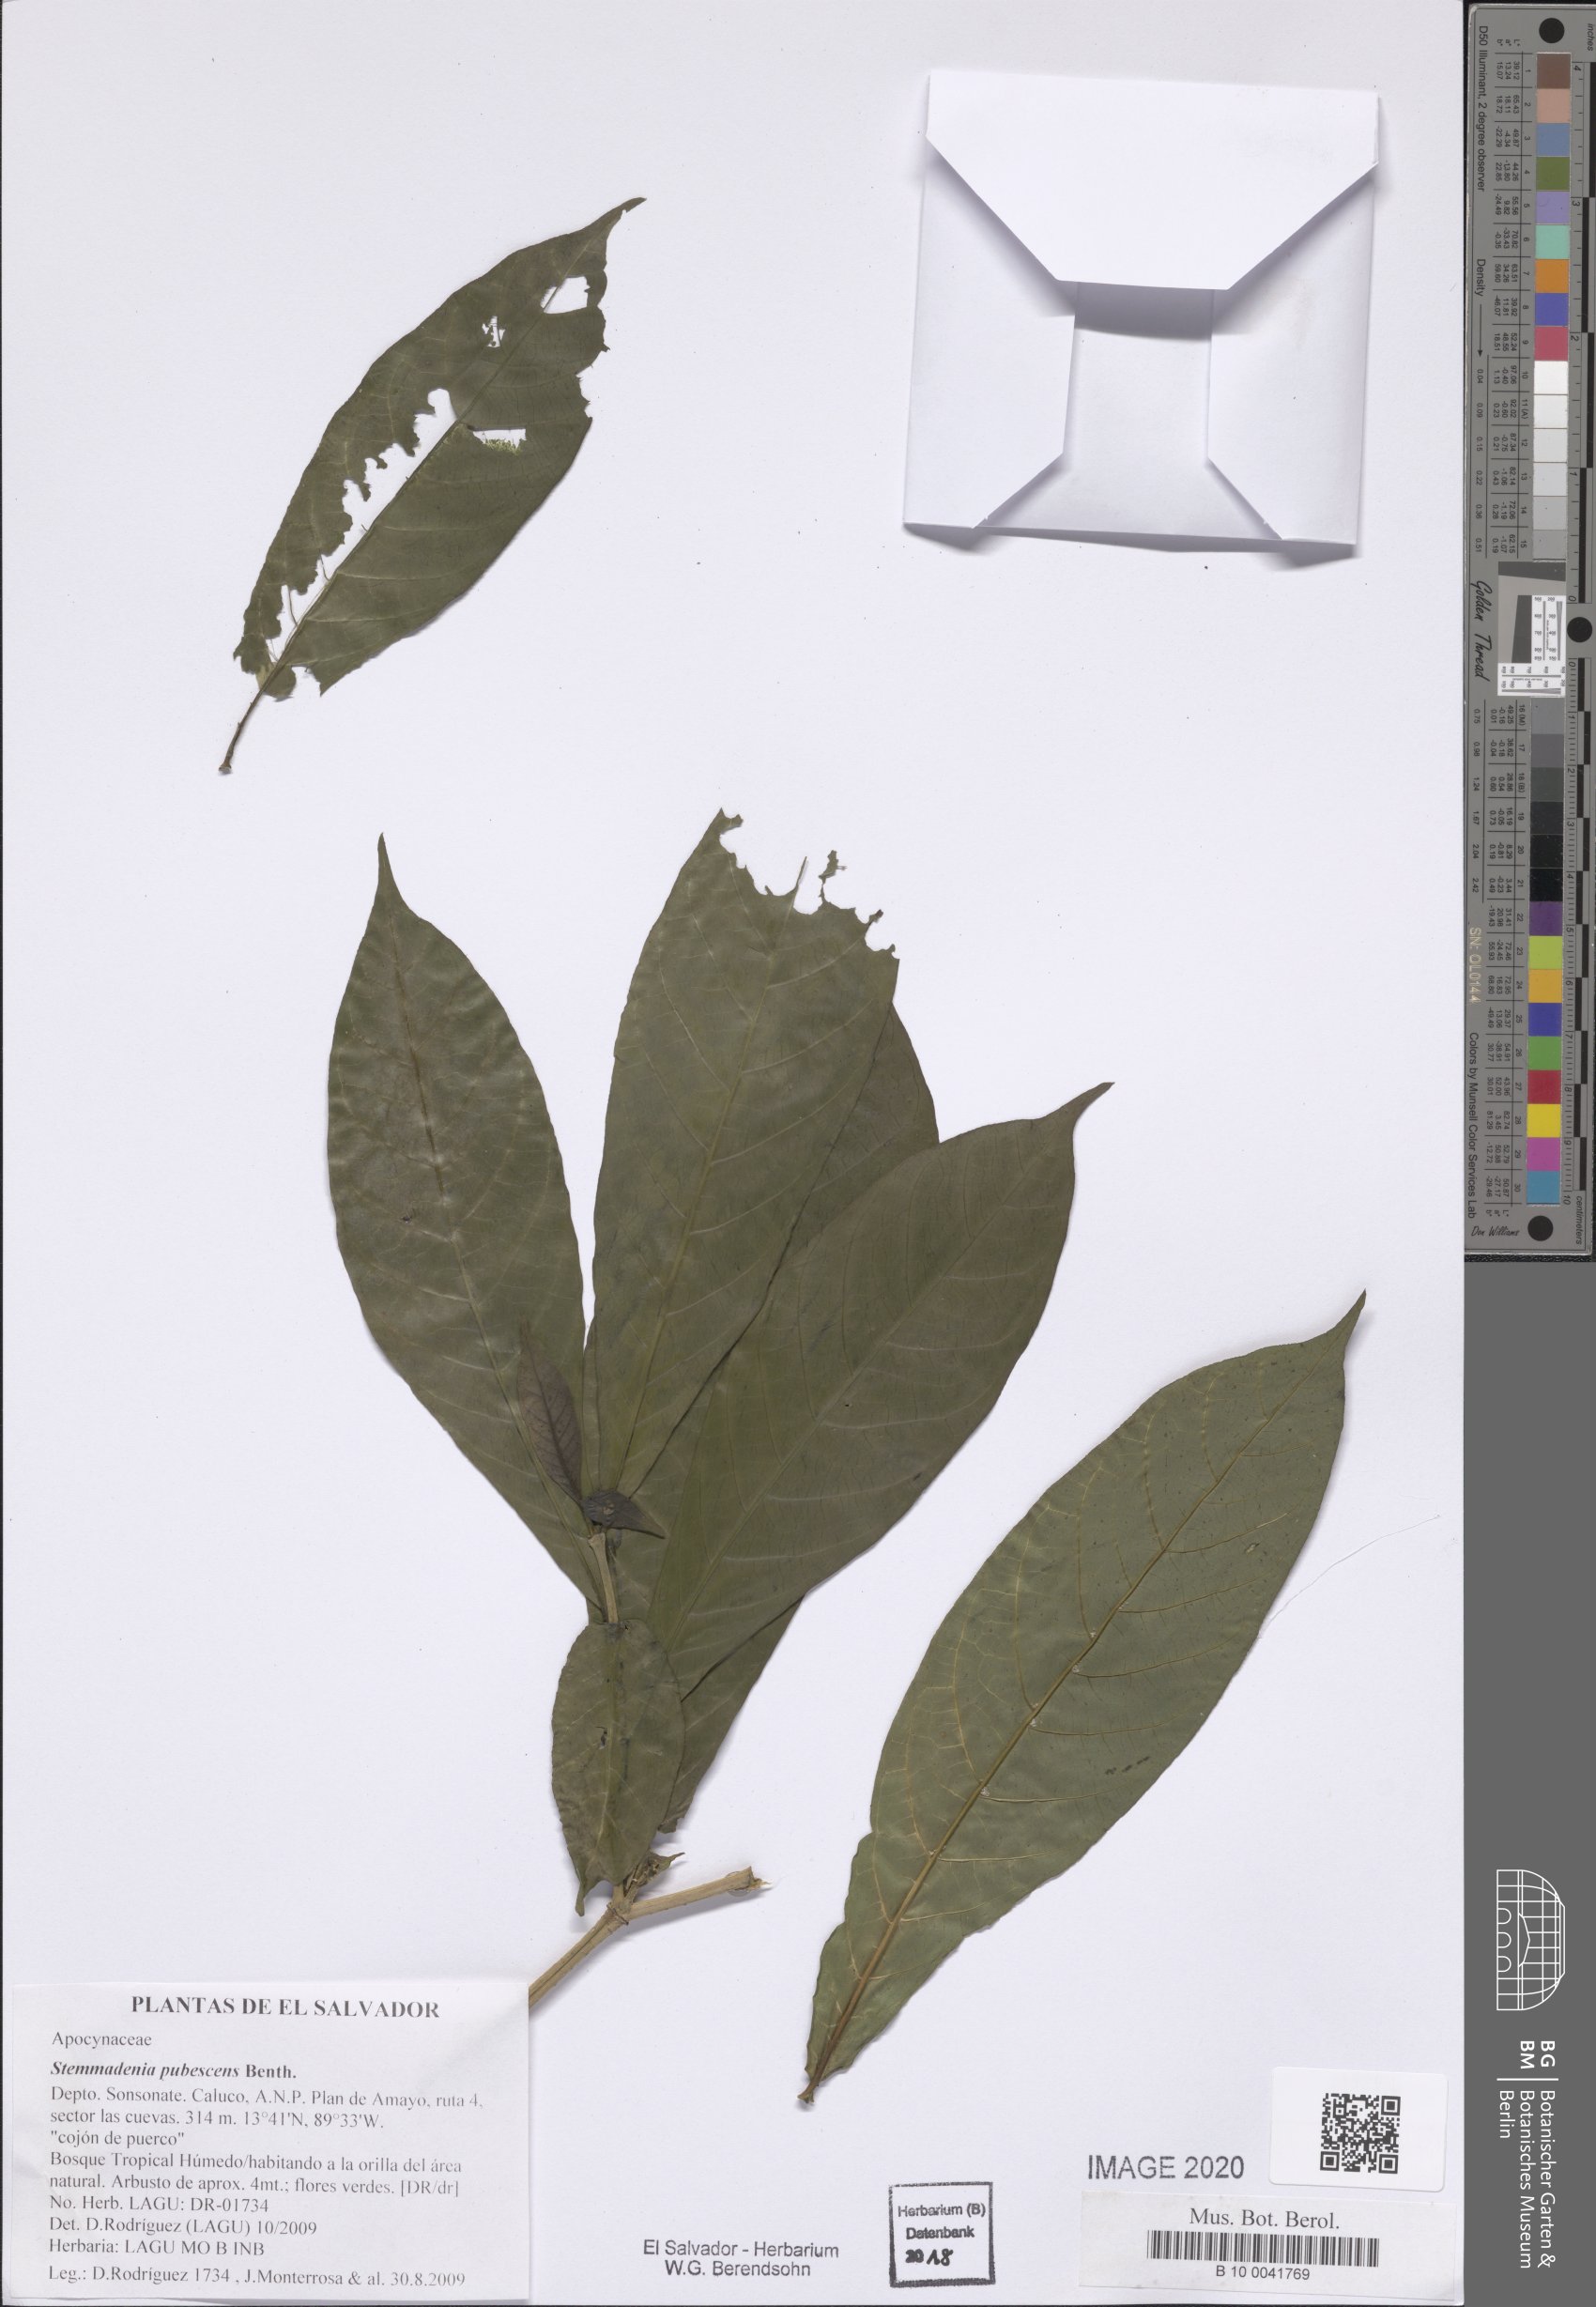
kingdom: Plantae
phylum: Tracheophyta
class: Magnoliopsida
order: Gentianales
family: Apocynaceae
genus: Tabernaemontana
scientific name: Tabernaemontana glabra
